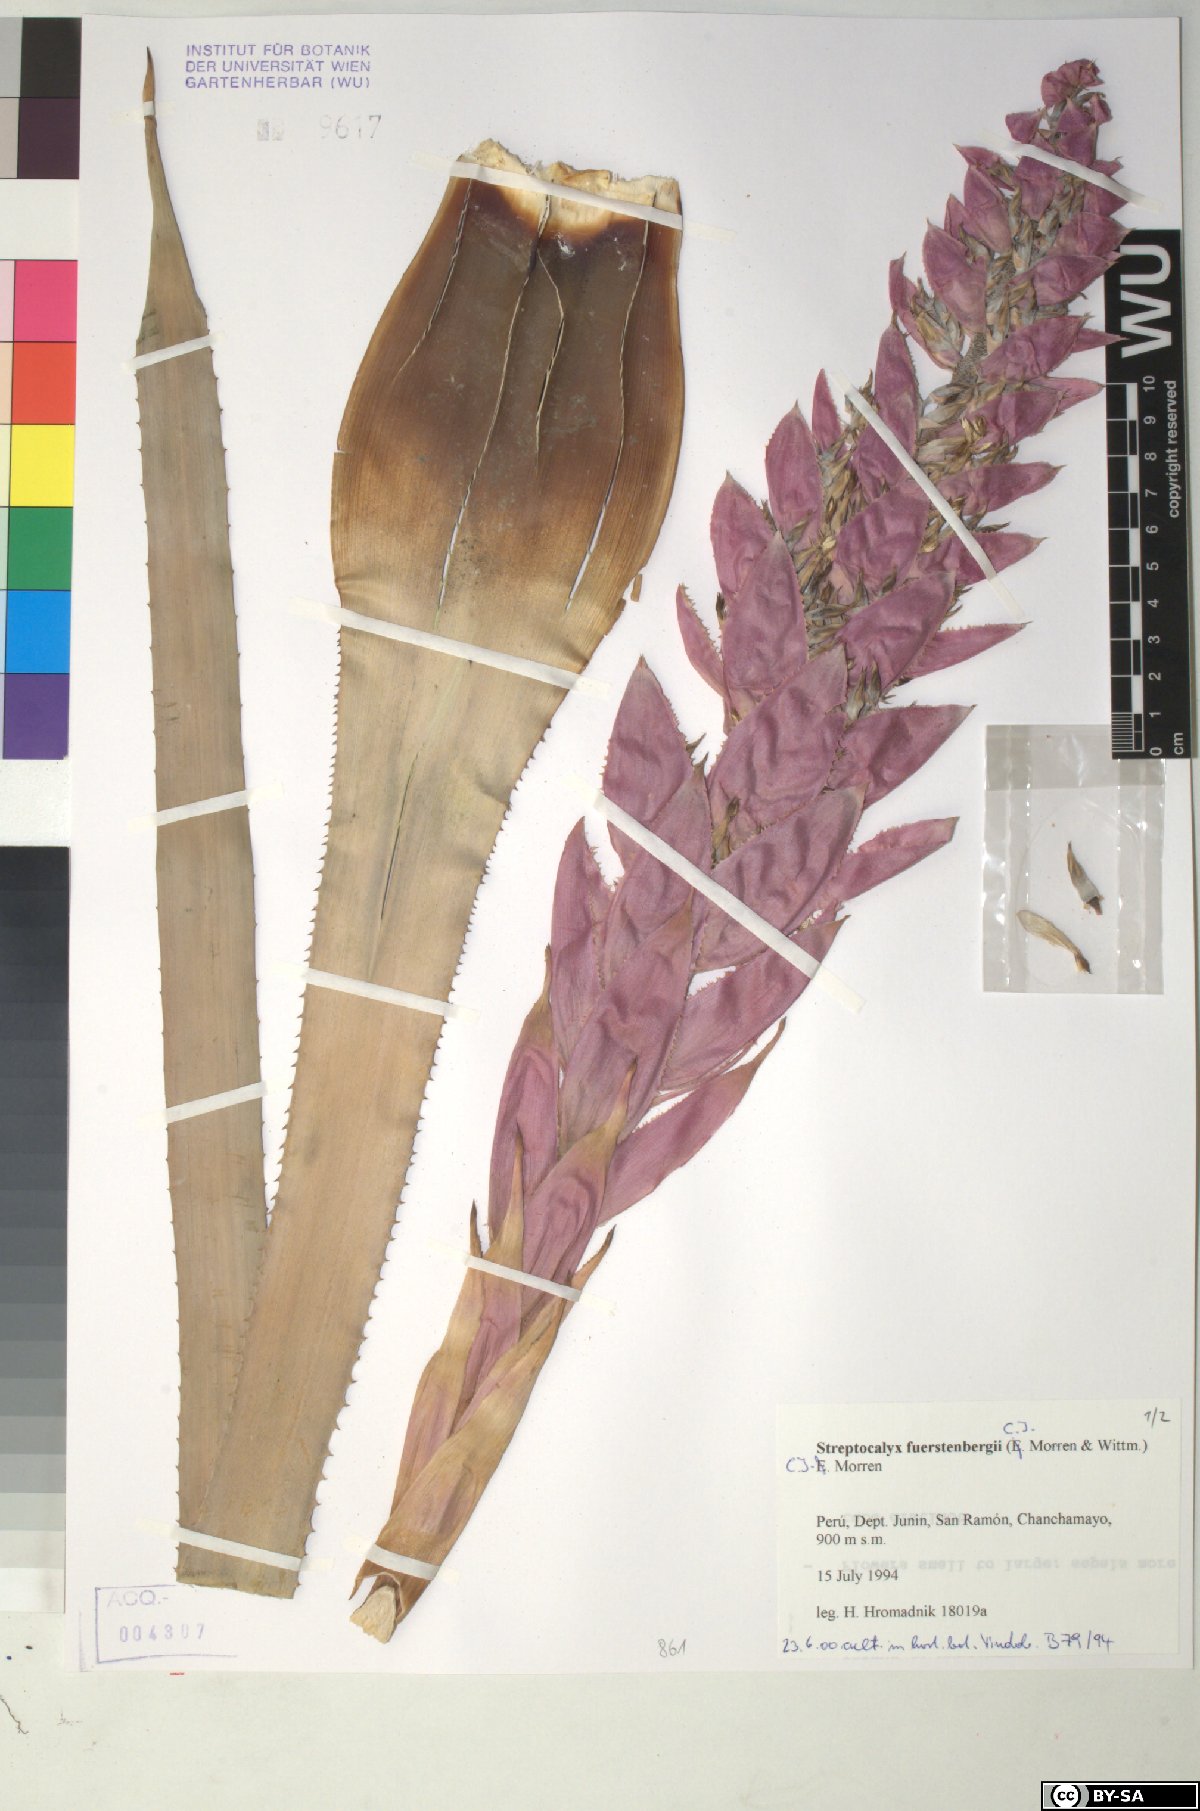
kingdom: Plantae
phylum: Tracheophyta
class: Liliopsida
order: Poales
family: Bromeliaceae
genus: Aechmea
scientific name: Aechmea fuerstenbergii
